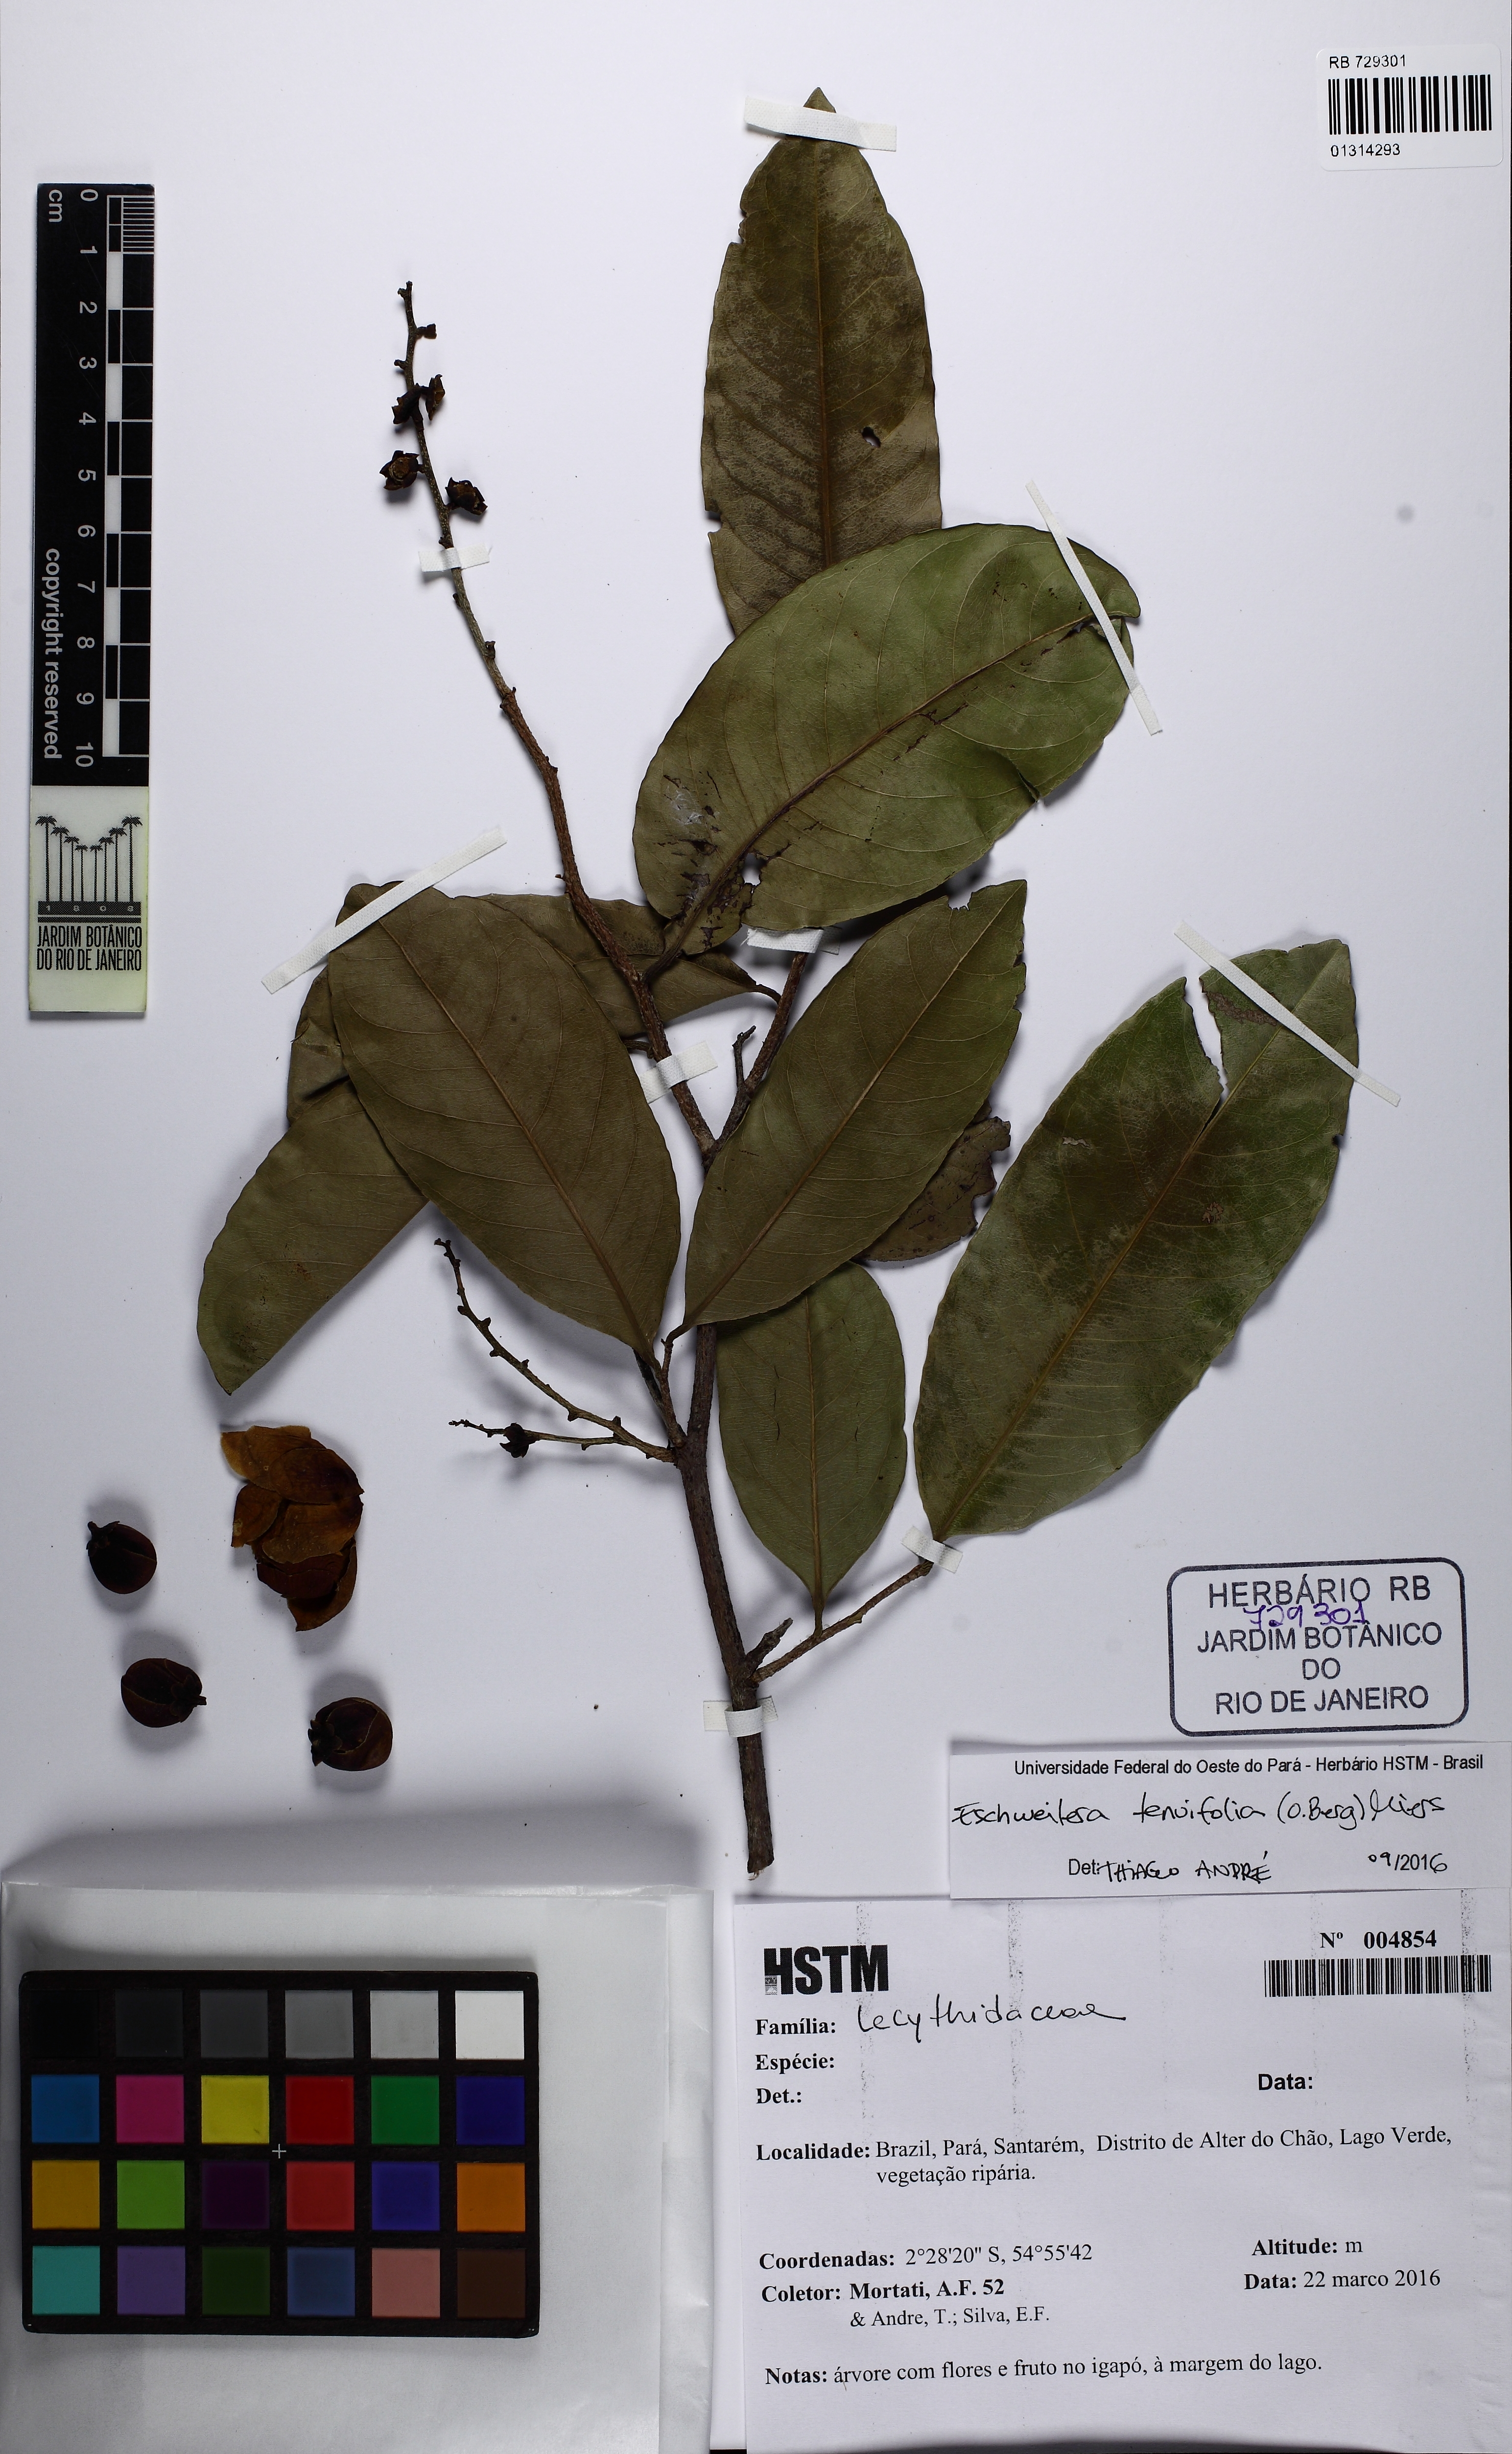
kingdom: Plantae
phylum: Tracheophyta
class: Magnoliopsida
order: Ericales
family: Lecythidaceae
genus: Eschweilera
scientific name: Eschweilera tenuifolia
